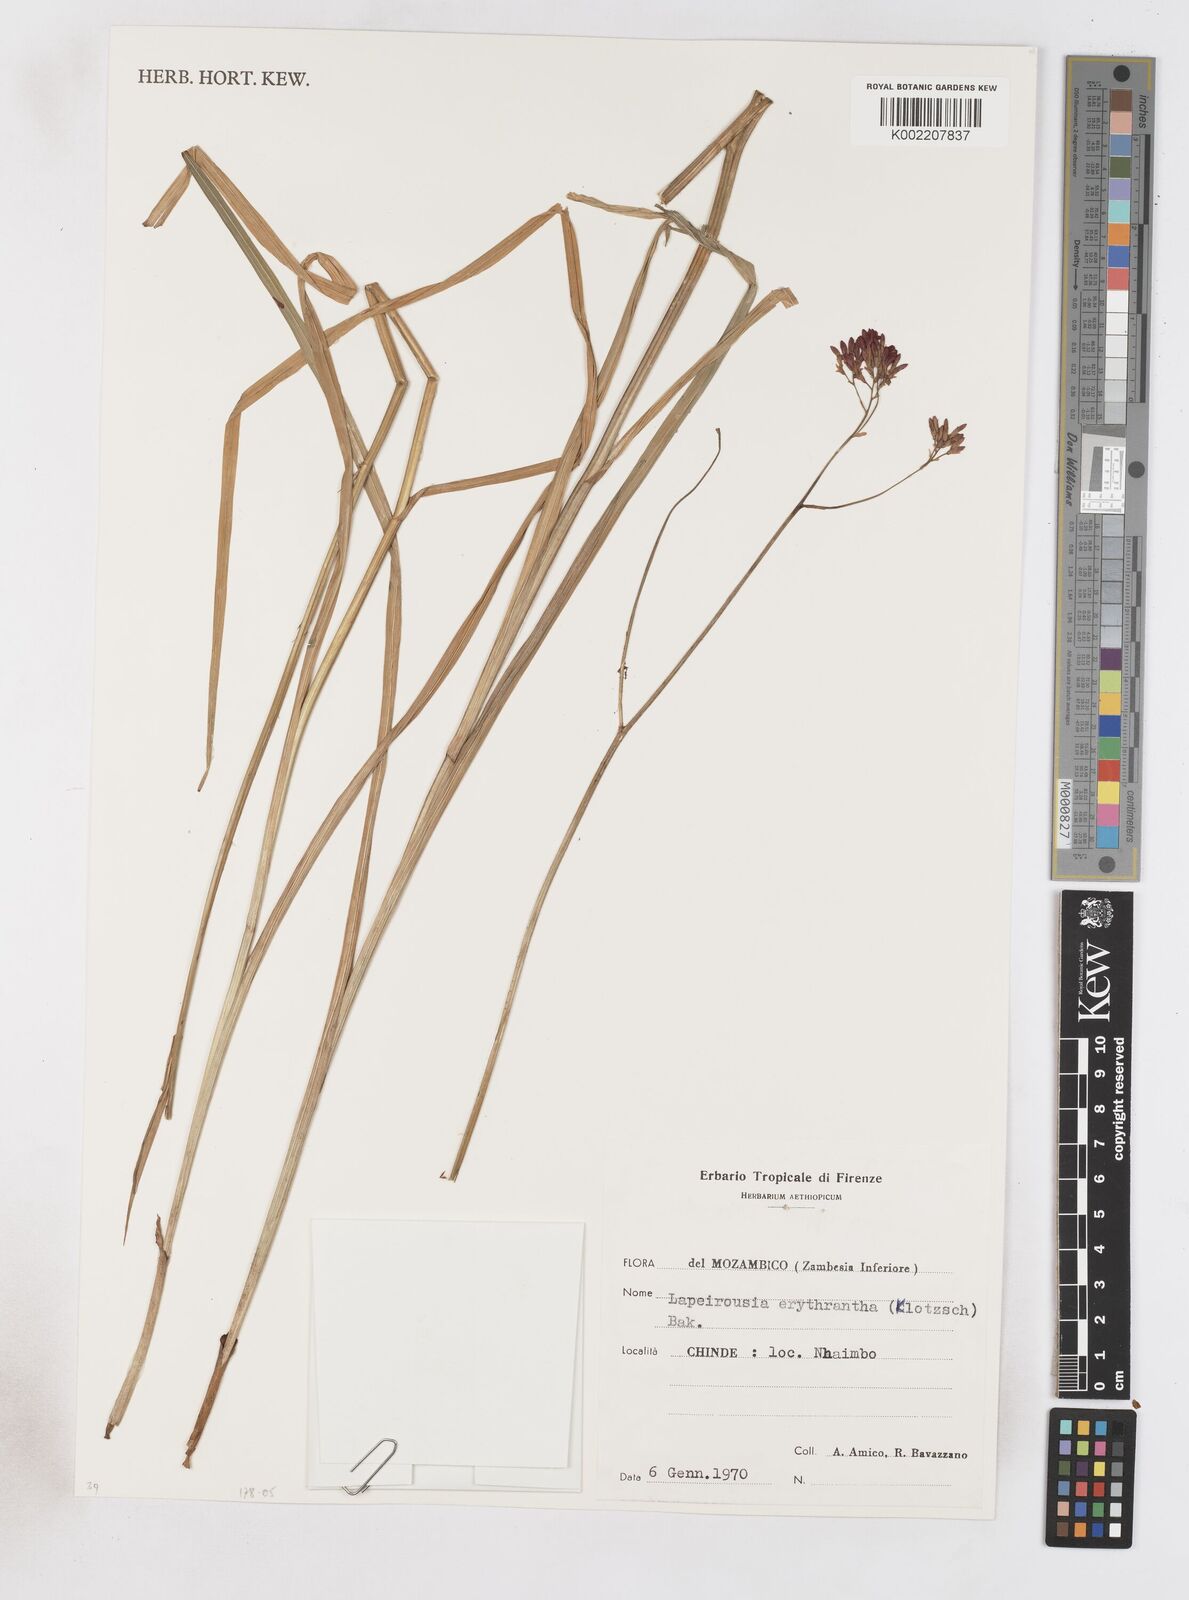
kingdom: Plantae
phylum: Tracheophyta
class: Liliopsida
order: Asparagales
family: Iridaceae
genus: Afrosolen
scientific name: Afrosolen erythranthus
